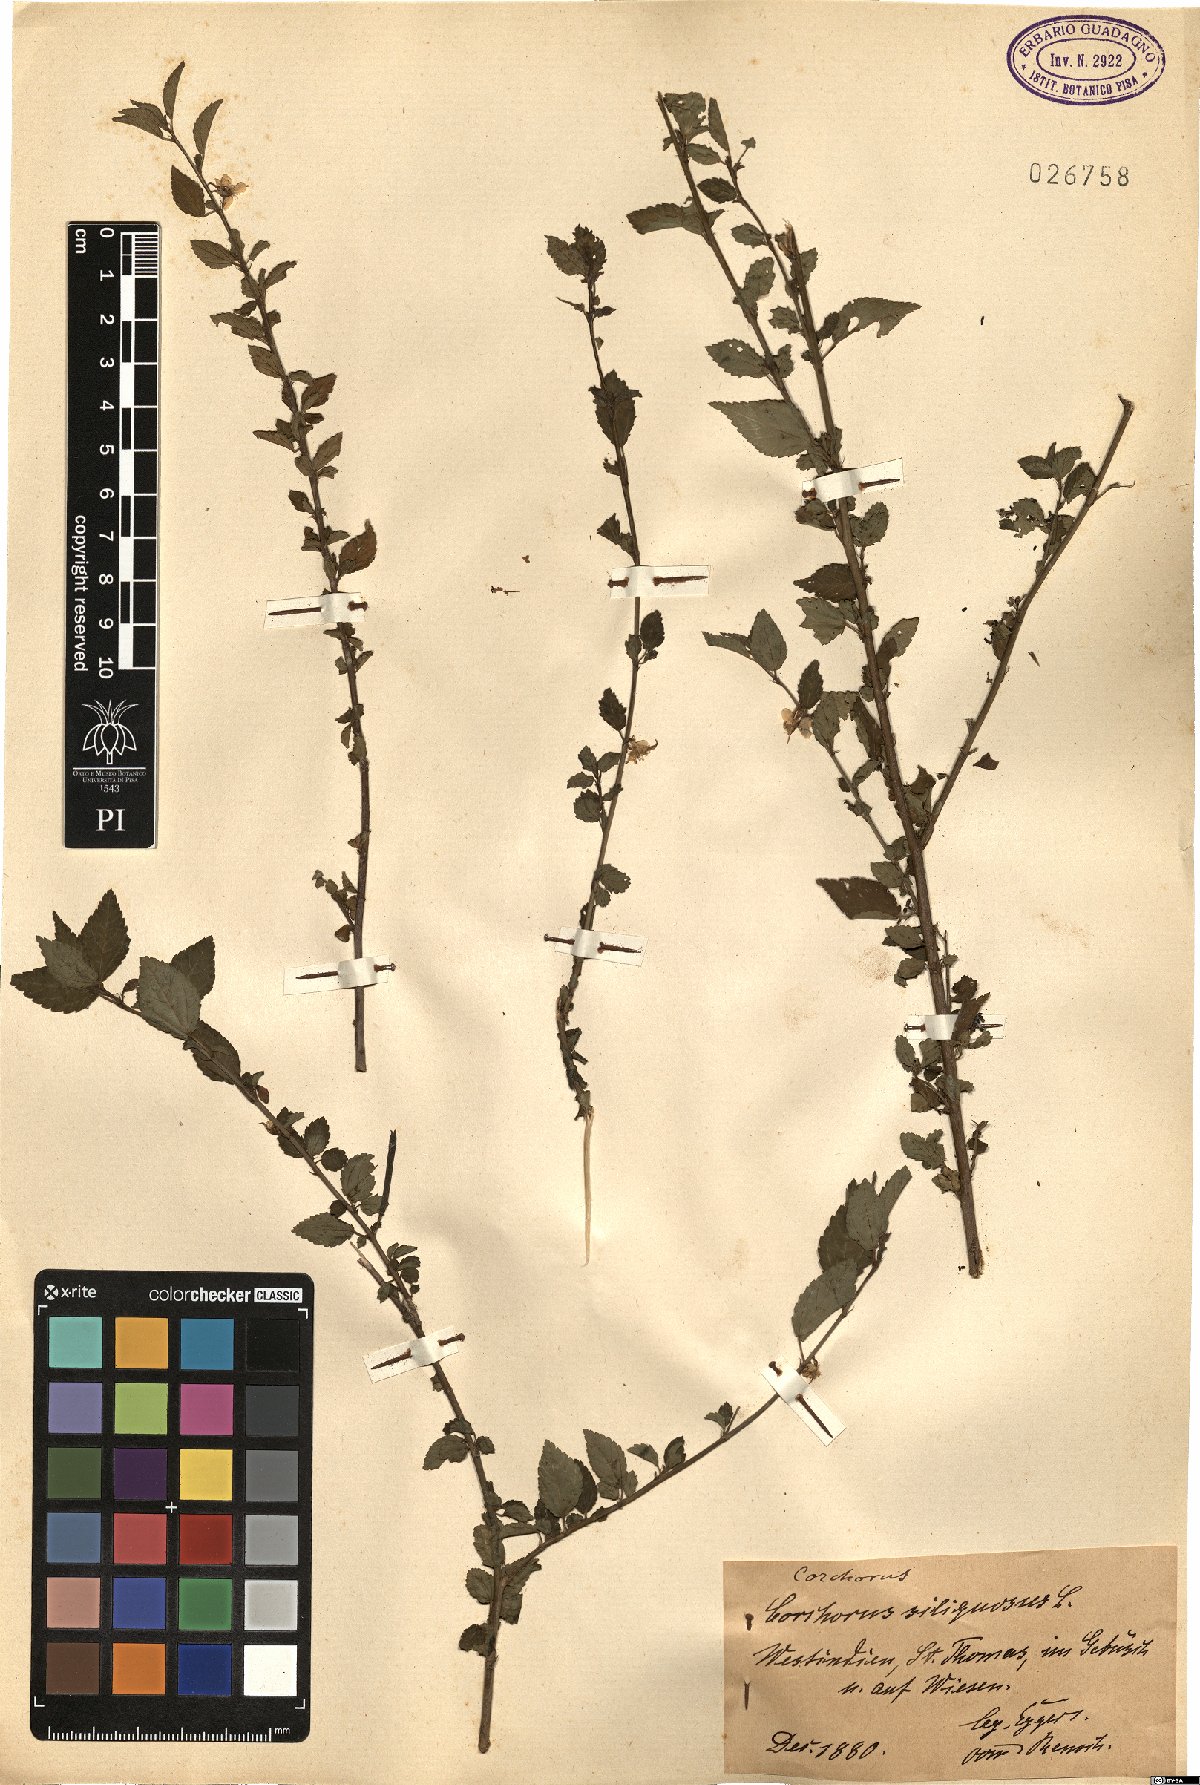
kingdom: Plantae
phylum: Tracheophyta
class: Magnoliopsida
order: Malvales
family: Malvaceae
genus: Corchorus
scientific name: Corchorus siliquosus
